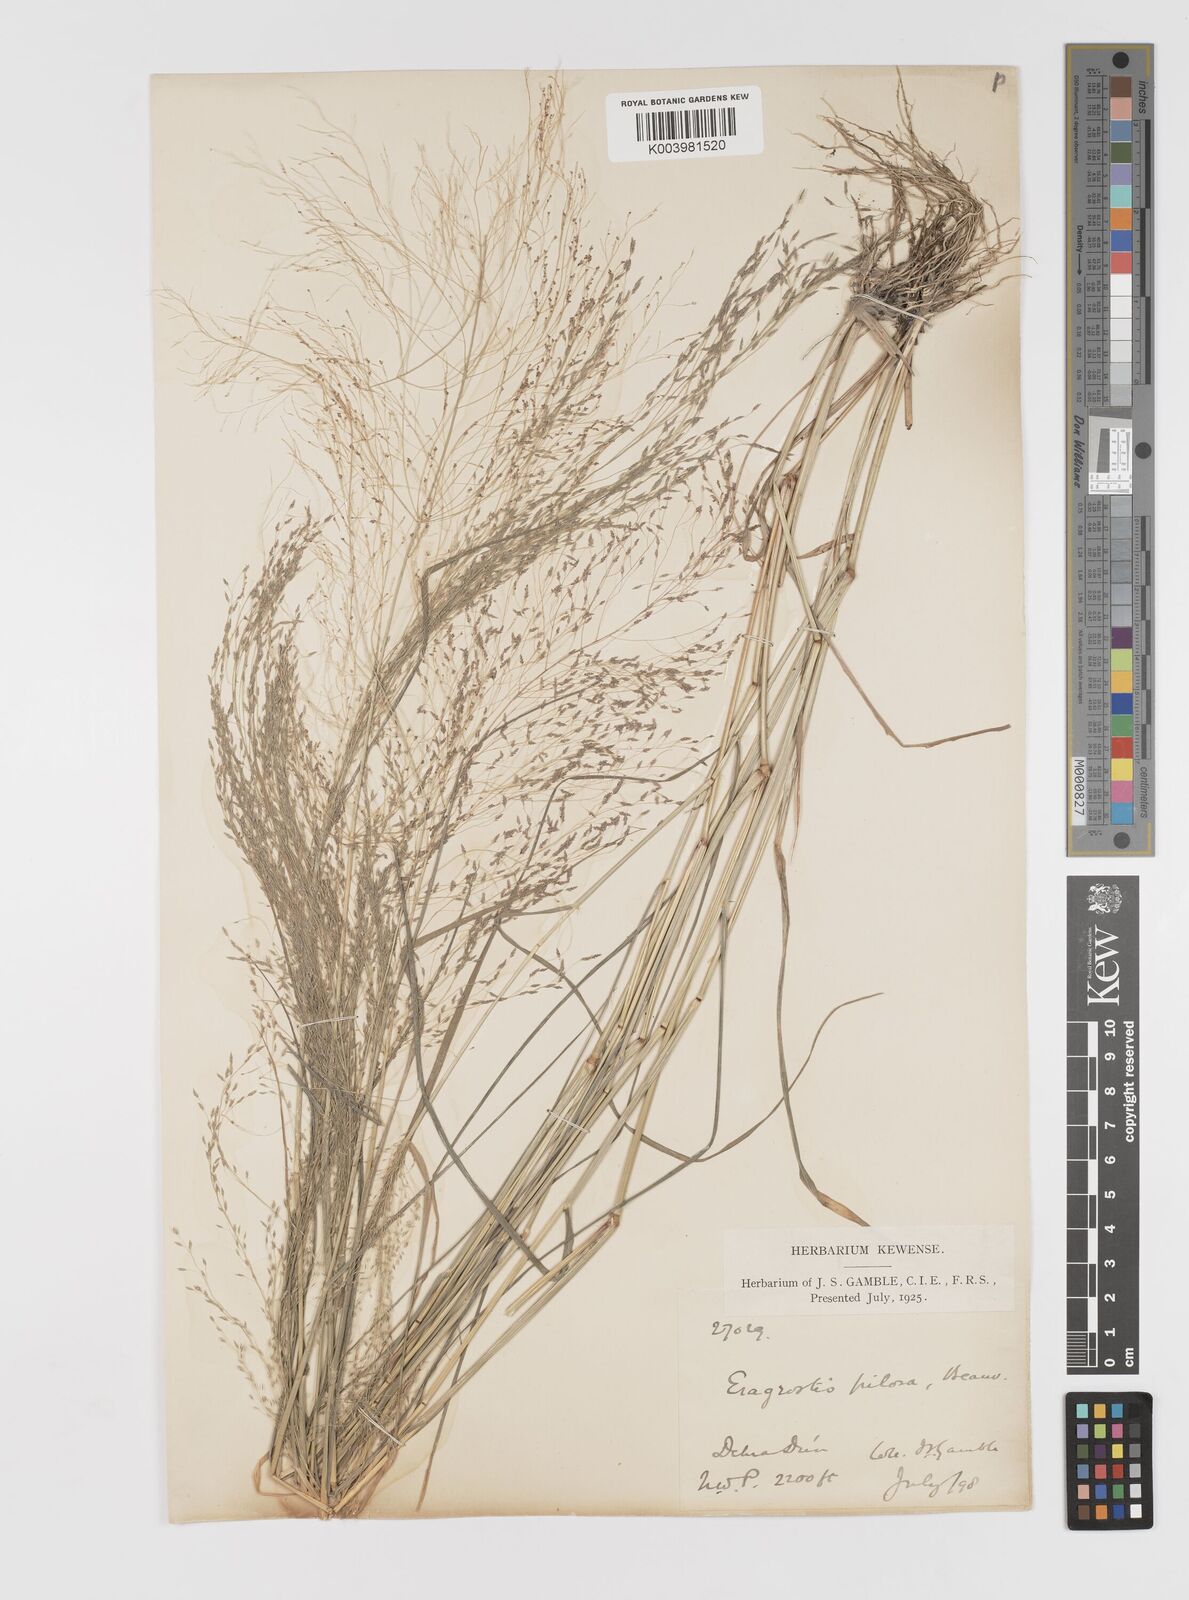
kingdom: Plantae
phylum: Tracheophyta
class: Liliopsida
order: Poales
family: Poaceae
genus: Eragrostis
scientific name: Eragrostis pilosa
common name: Indian lovegrass
